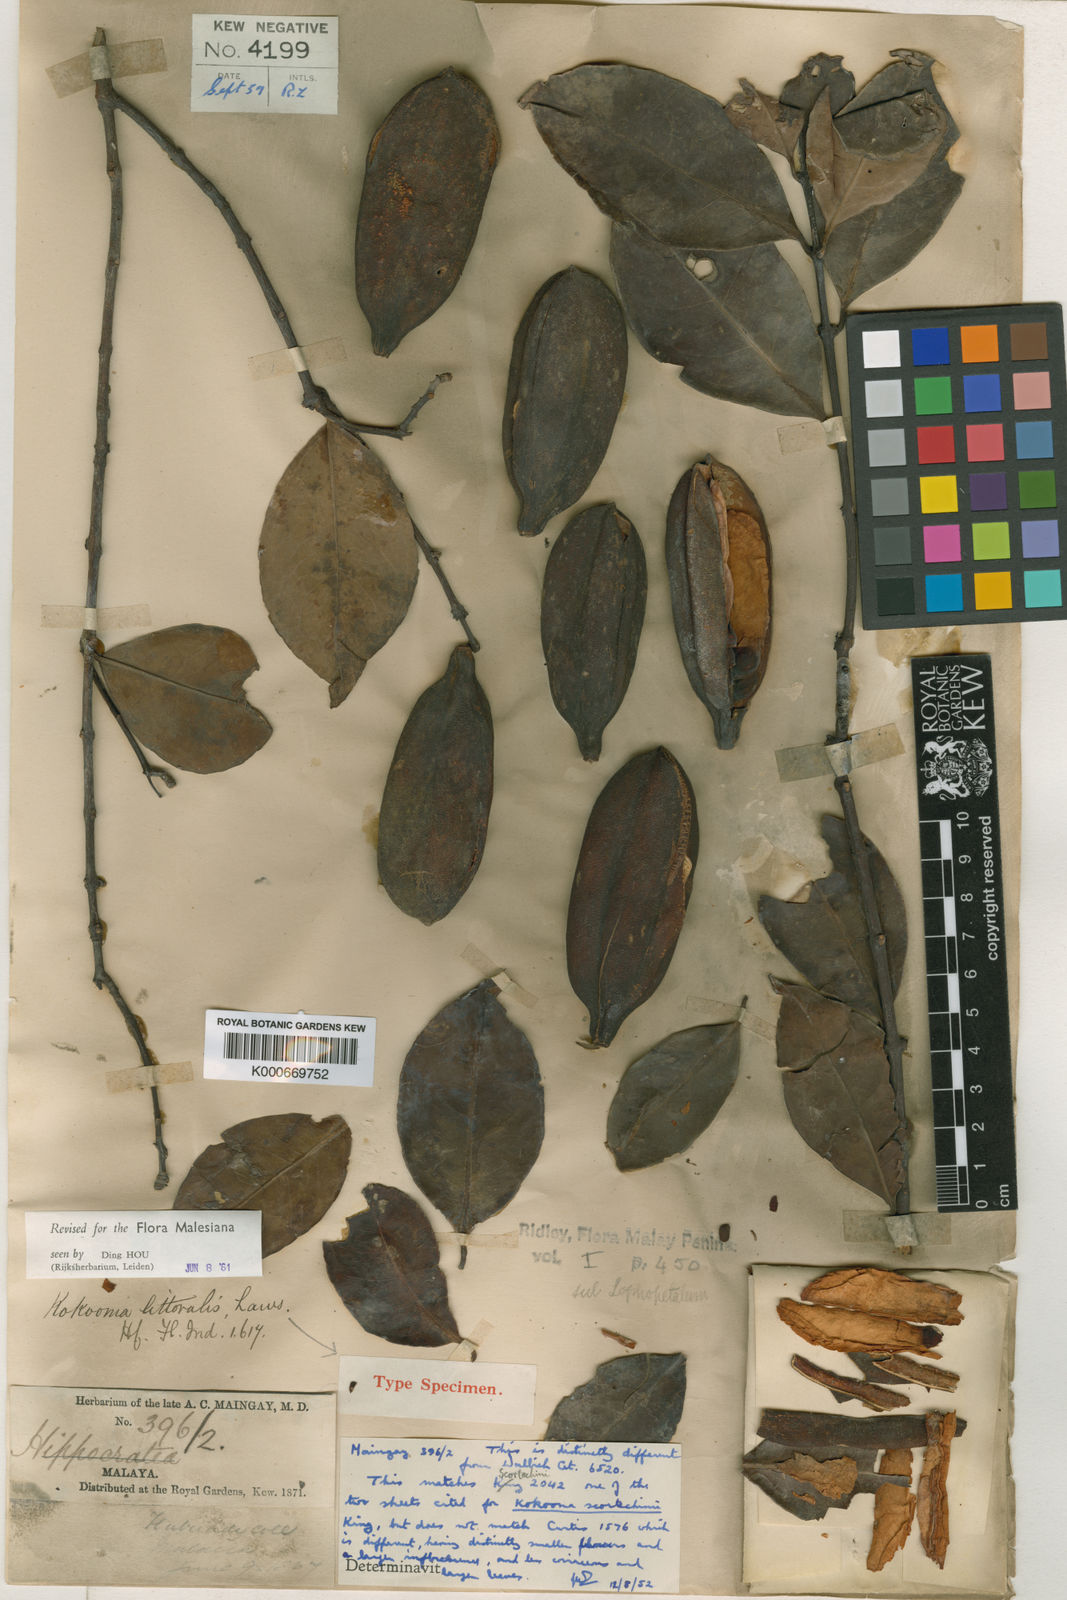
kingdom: Plantae
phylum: Tracheophyta
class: Magnoliopsida
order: Celastrales
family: Celastraceae
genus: Kokoona
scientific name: Kokoona littoralis
